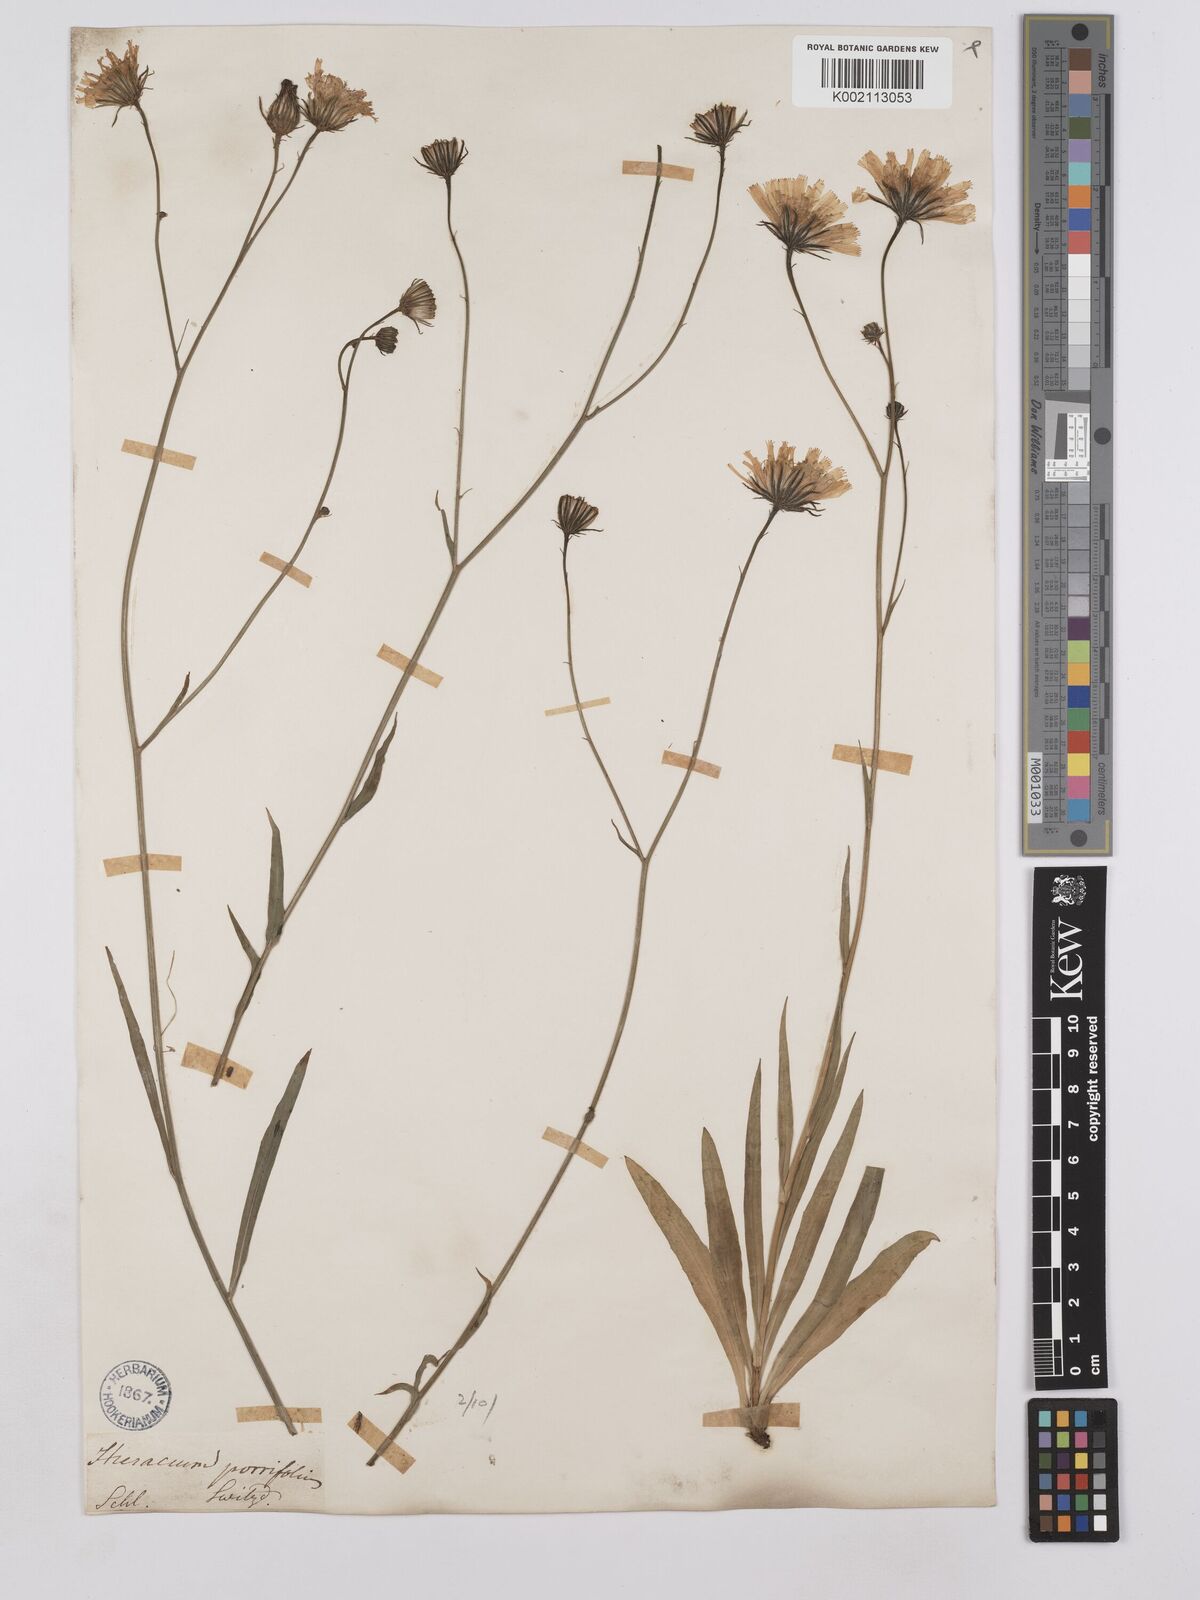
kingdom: Plantae
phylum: Tracheophyta
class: Magnoliopsida
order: Asterales
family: Asteraceae
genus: Hieracium
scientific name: Hieracium bupleuroides
